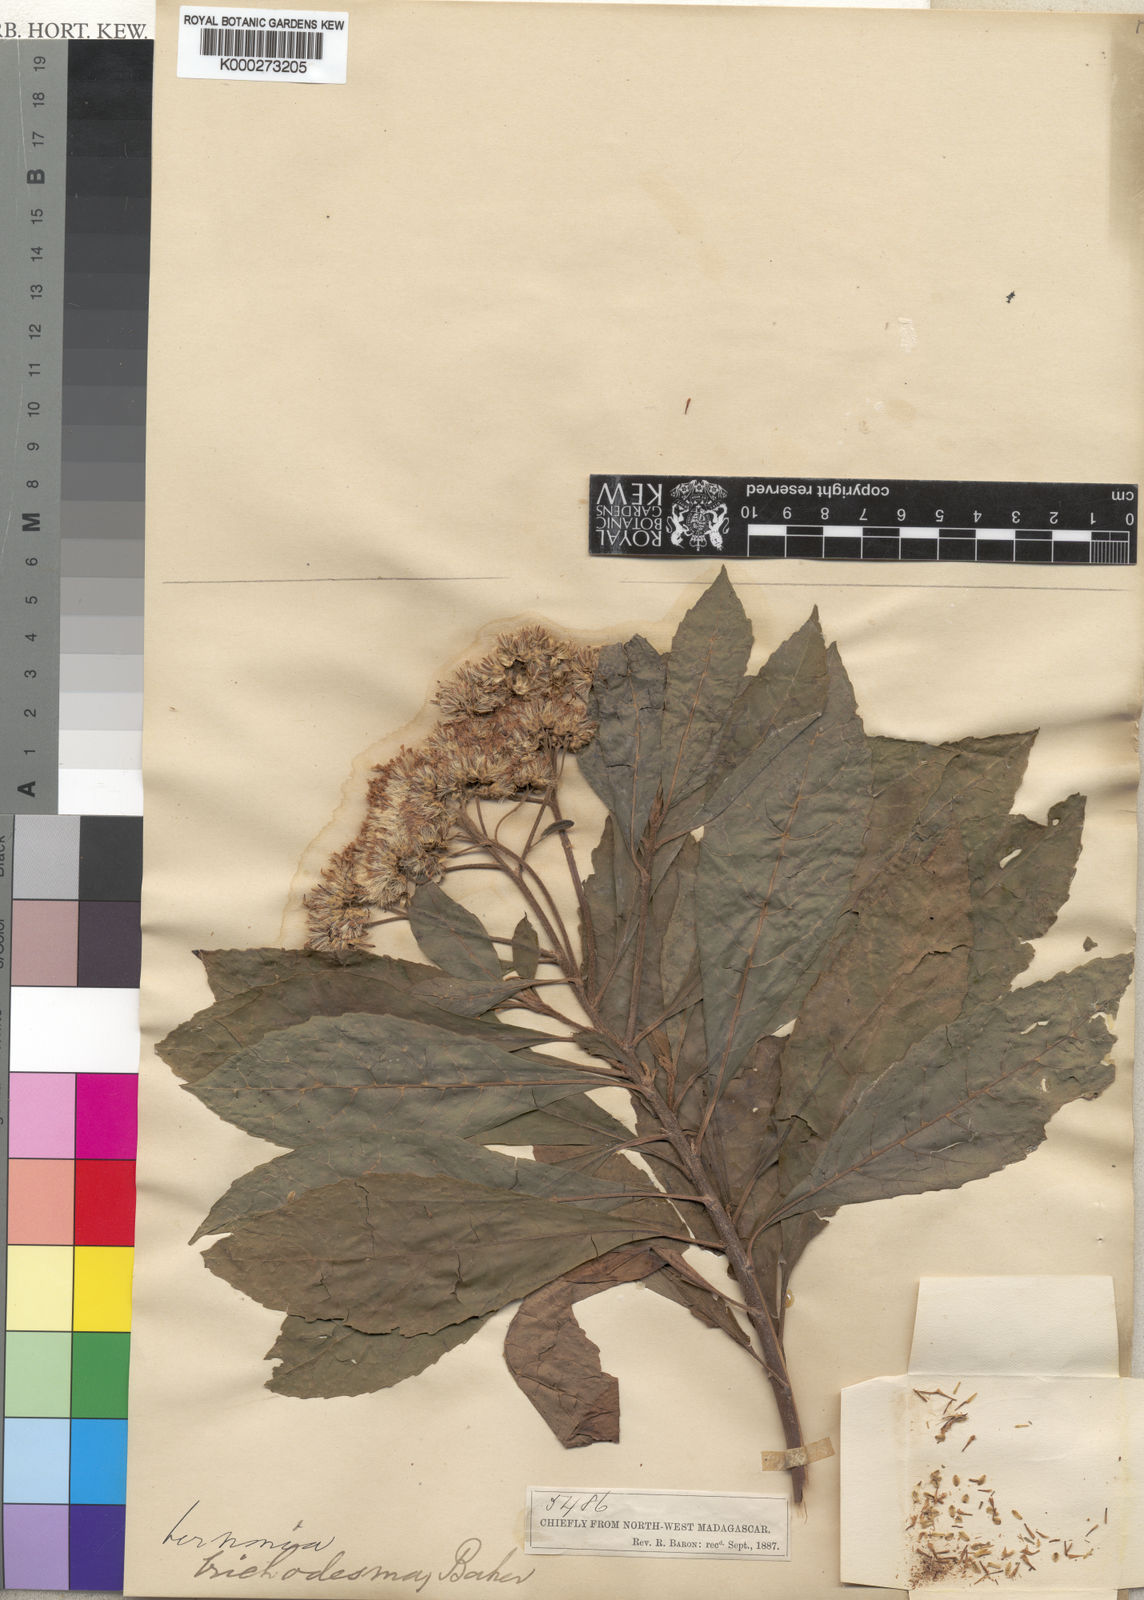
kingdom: Plantae
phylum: Tracheophyta
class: Magnoliopsida
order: Asterales
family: Asteraceae
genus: Gymnanthemum
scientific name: Gymnanthemum exsertum
